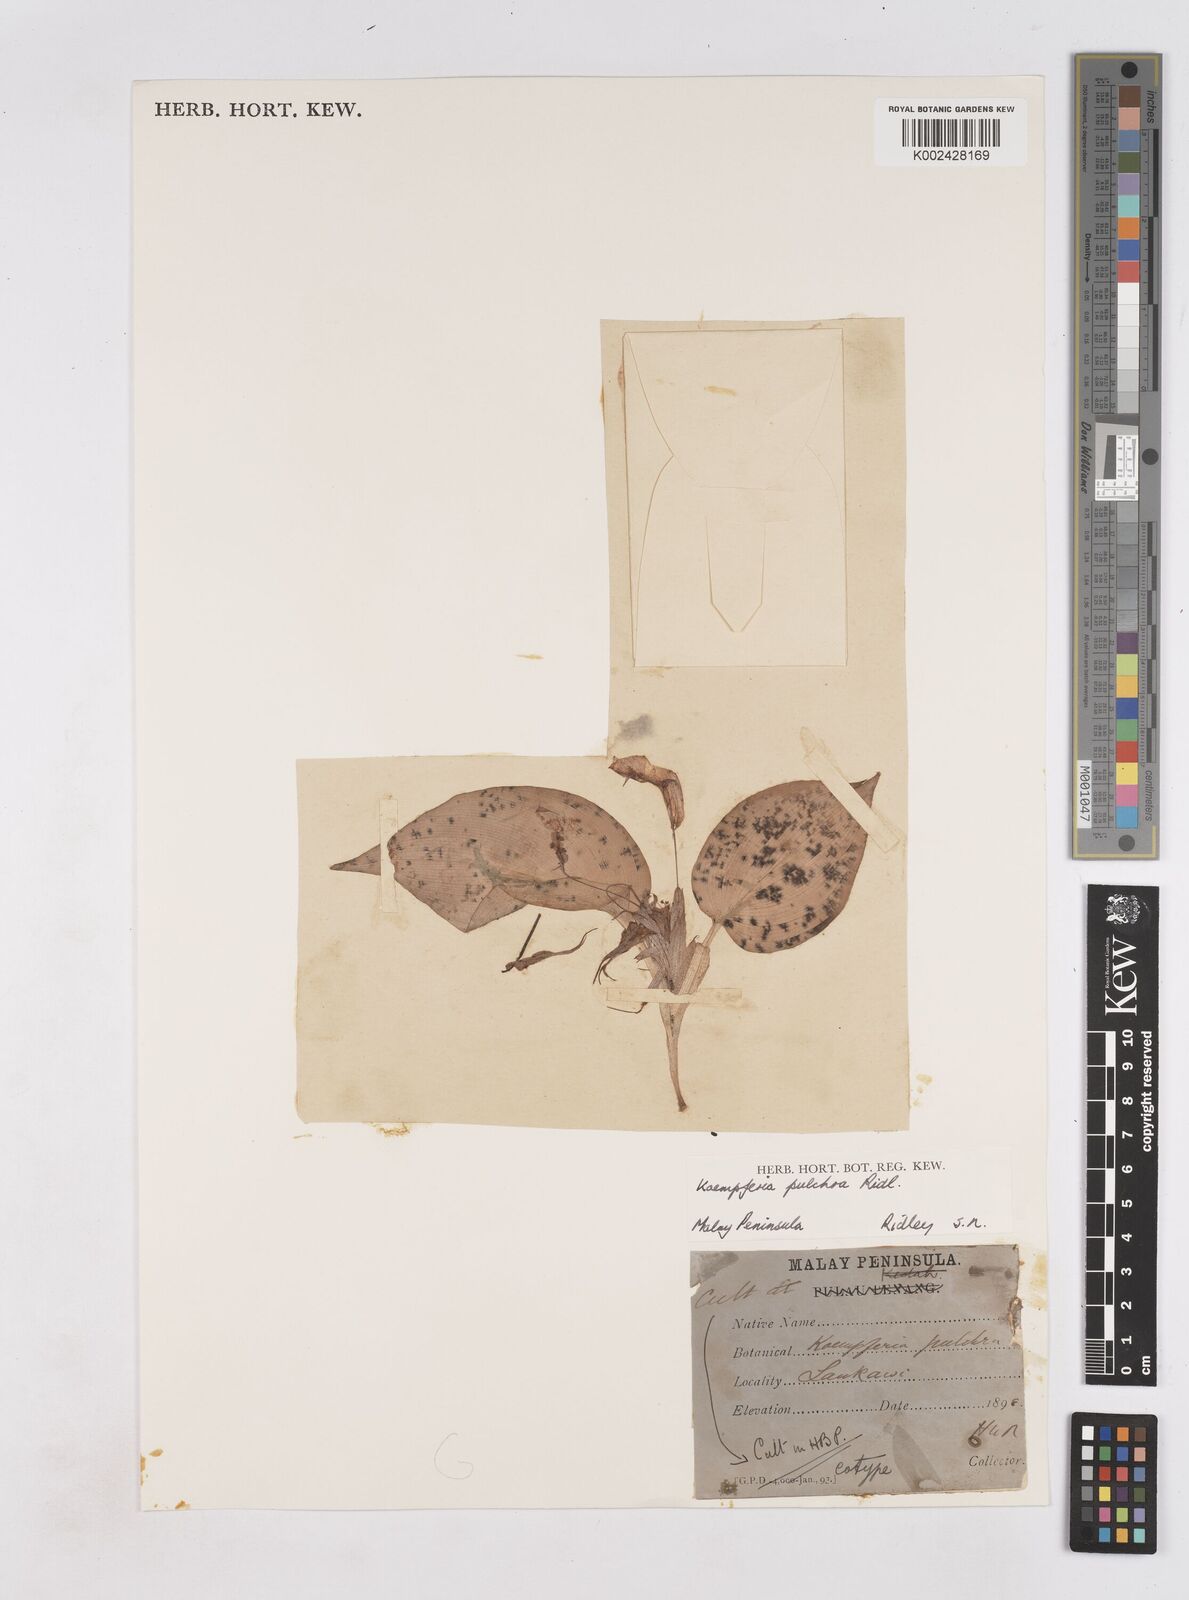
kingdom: Plantae
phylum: Tracheophyta
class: Liliopsida
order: Zingiberales
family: Zingiberaceae
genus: Kaempferia
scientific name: Kaempferia pulchra
